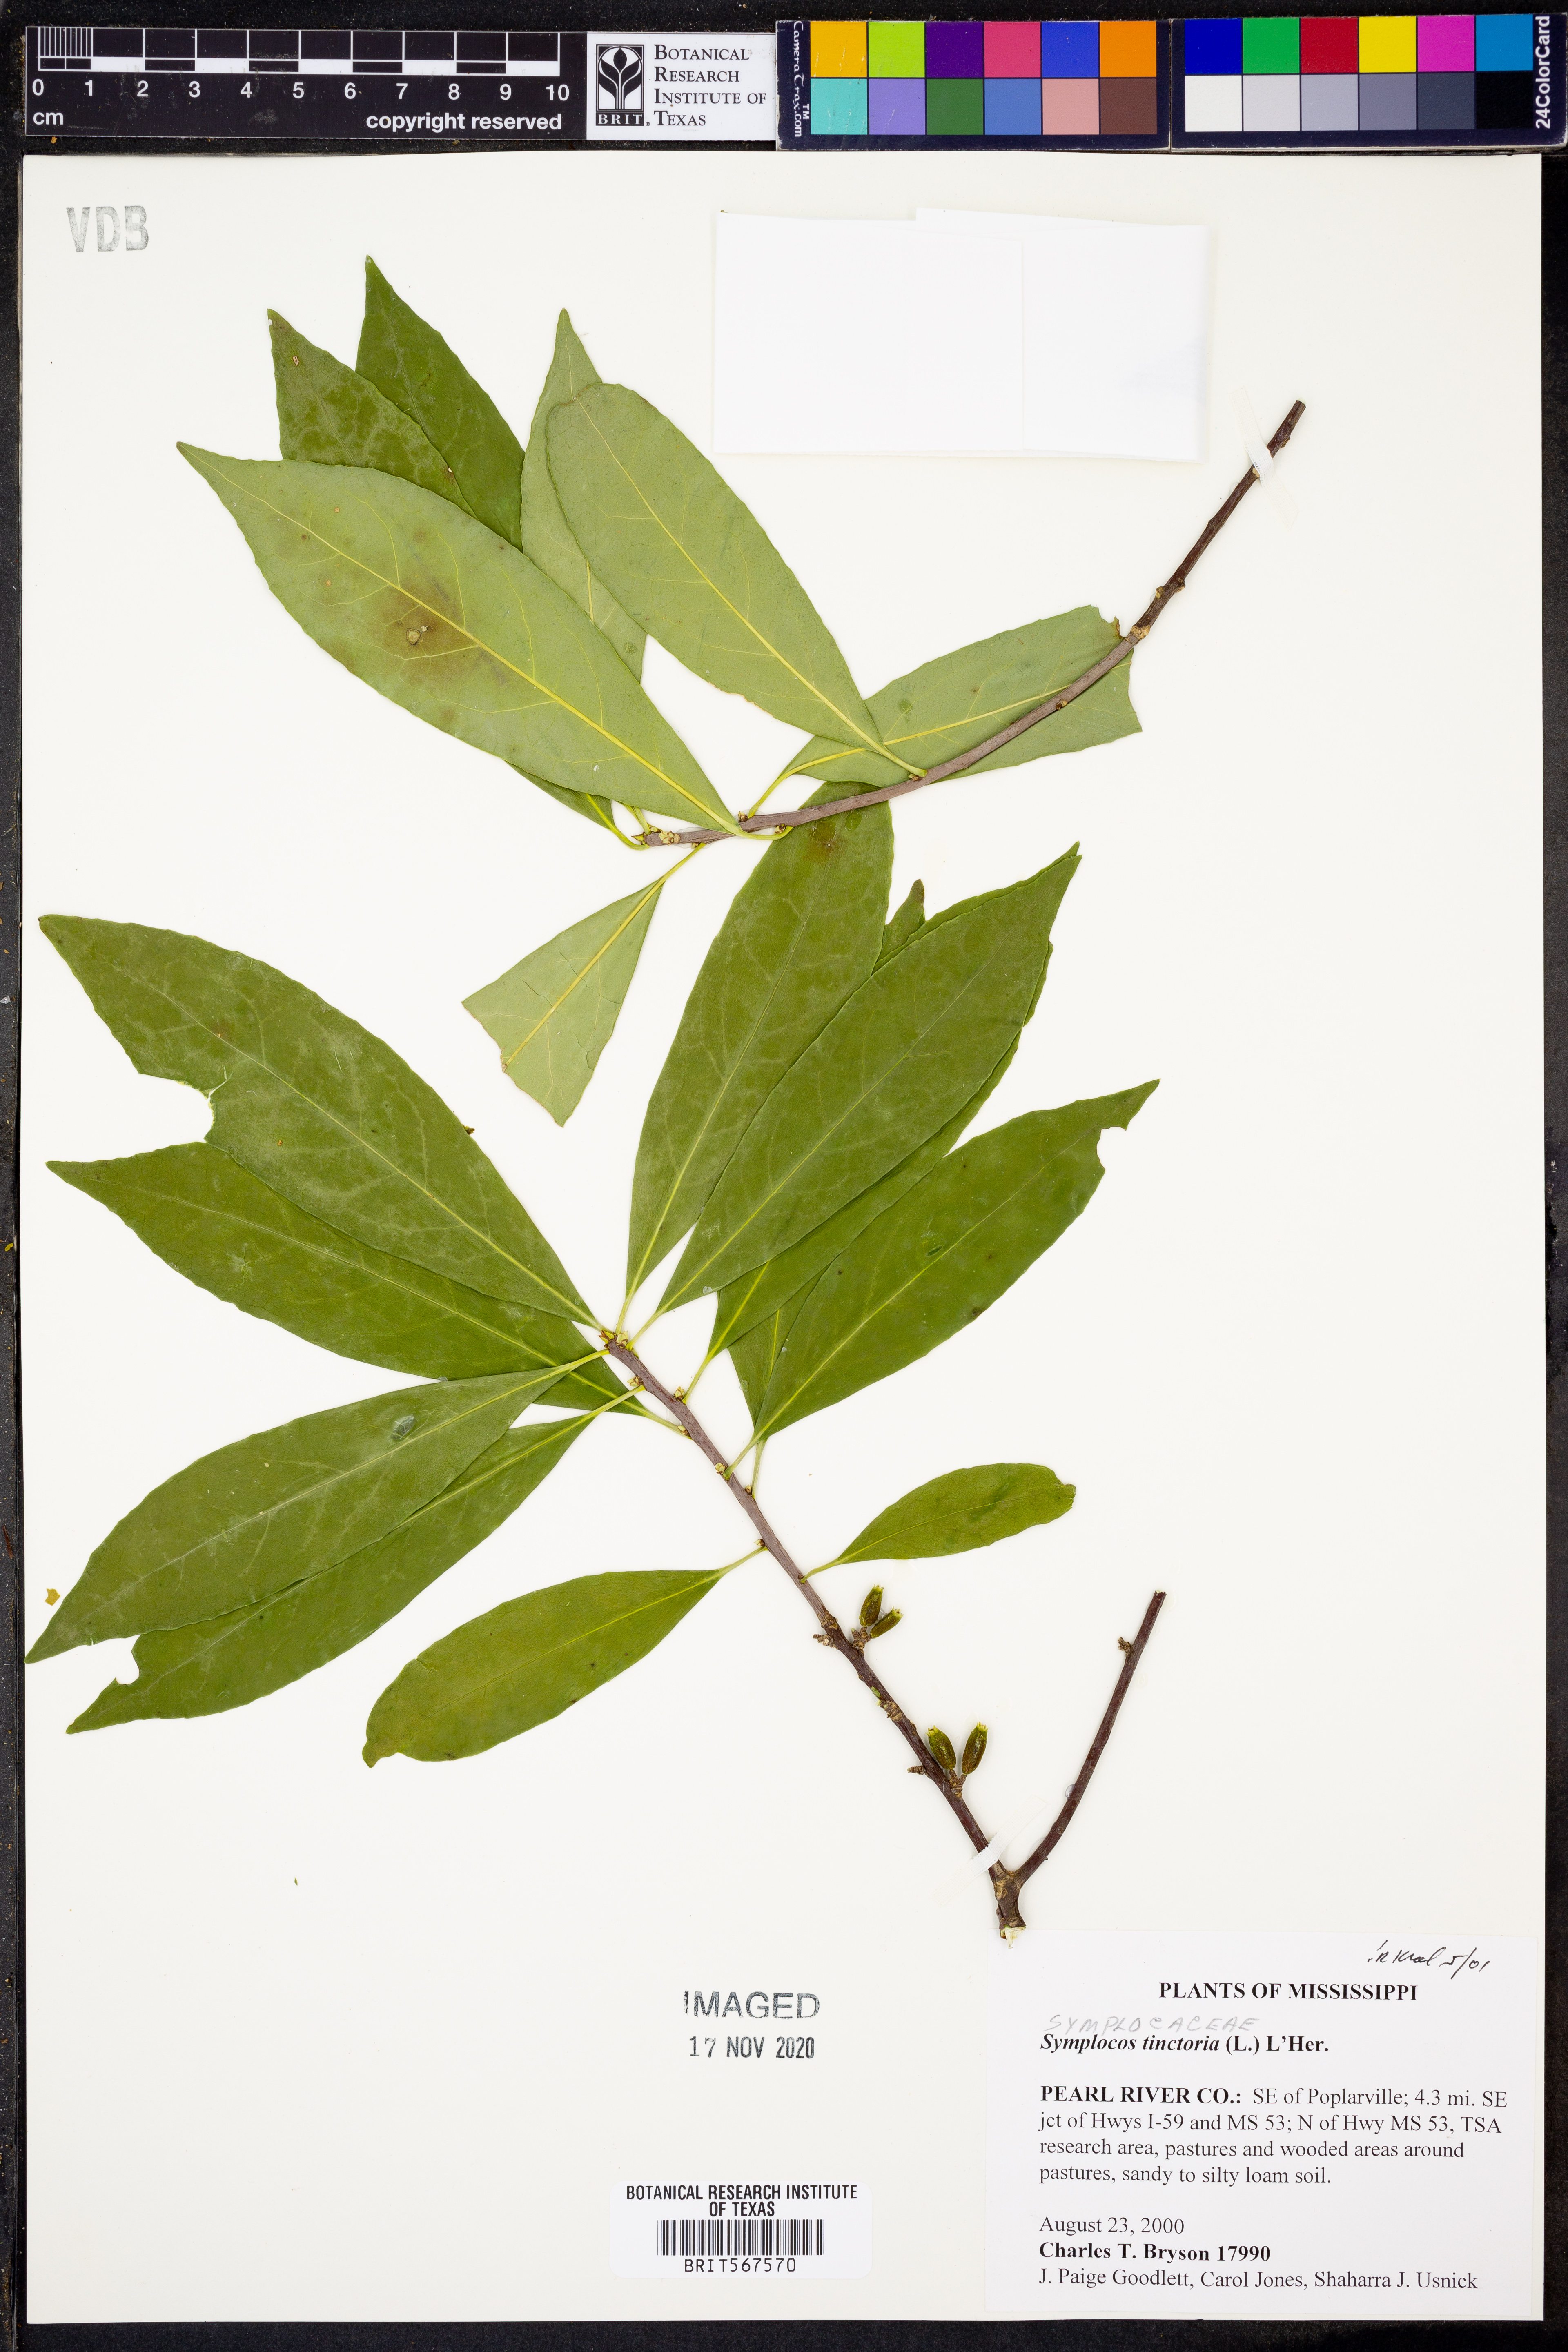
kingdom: Plantae
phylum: Tracheophyta
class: Magnoliopsida
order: Ericales
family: Symplocaceae
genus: Symplocos
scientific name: Symplocos tinctoria
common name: Horse-sugar
